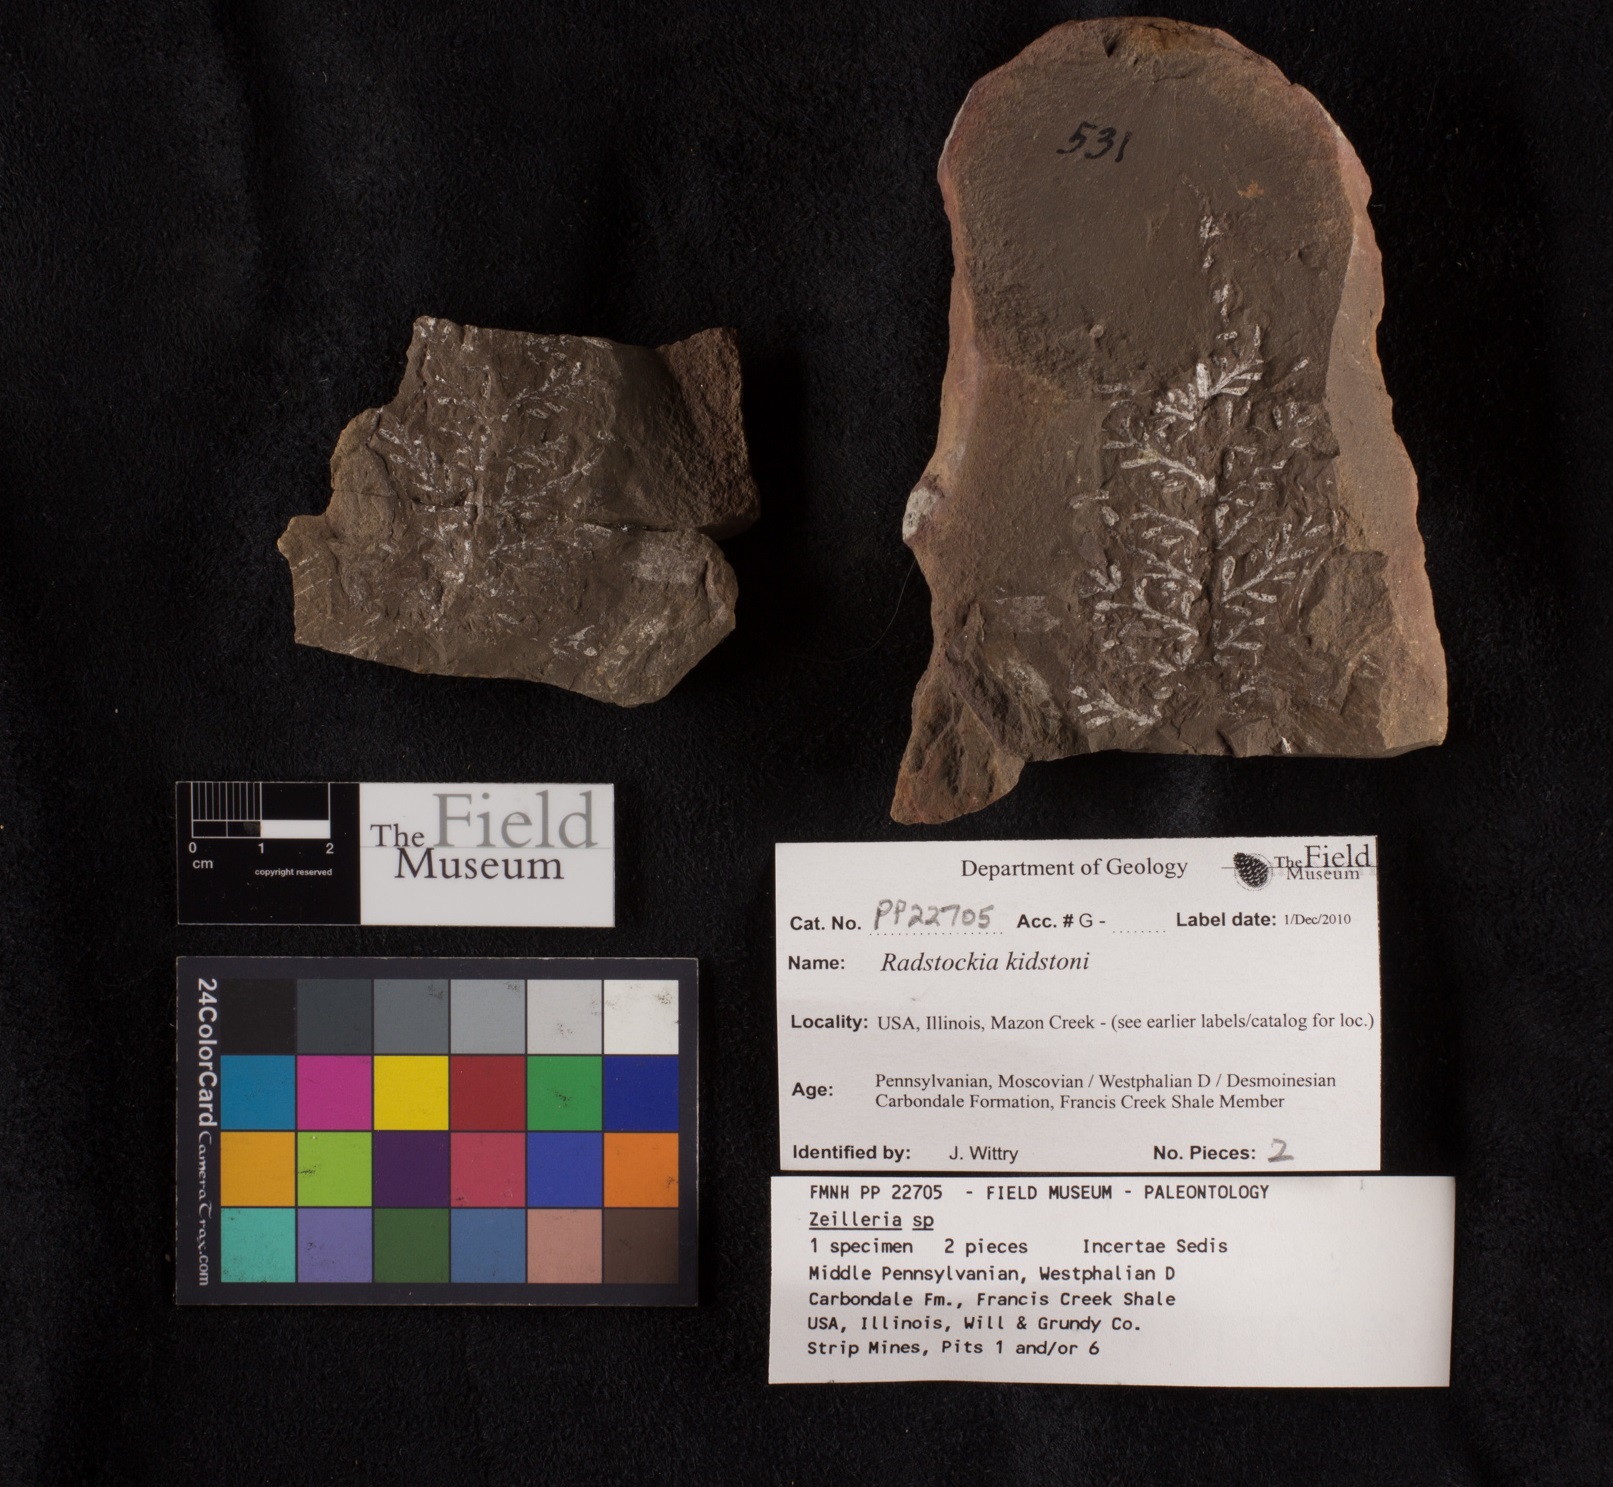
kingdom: Plantae
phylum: Tracheophyta
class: Polypodiopsida
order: Marattiales
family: Asterothecaceae
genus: Radstockia
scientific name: Radstockia
